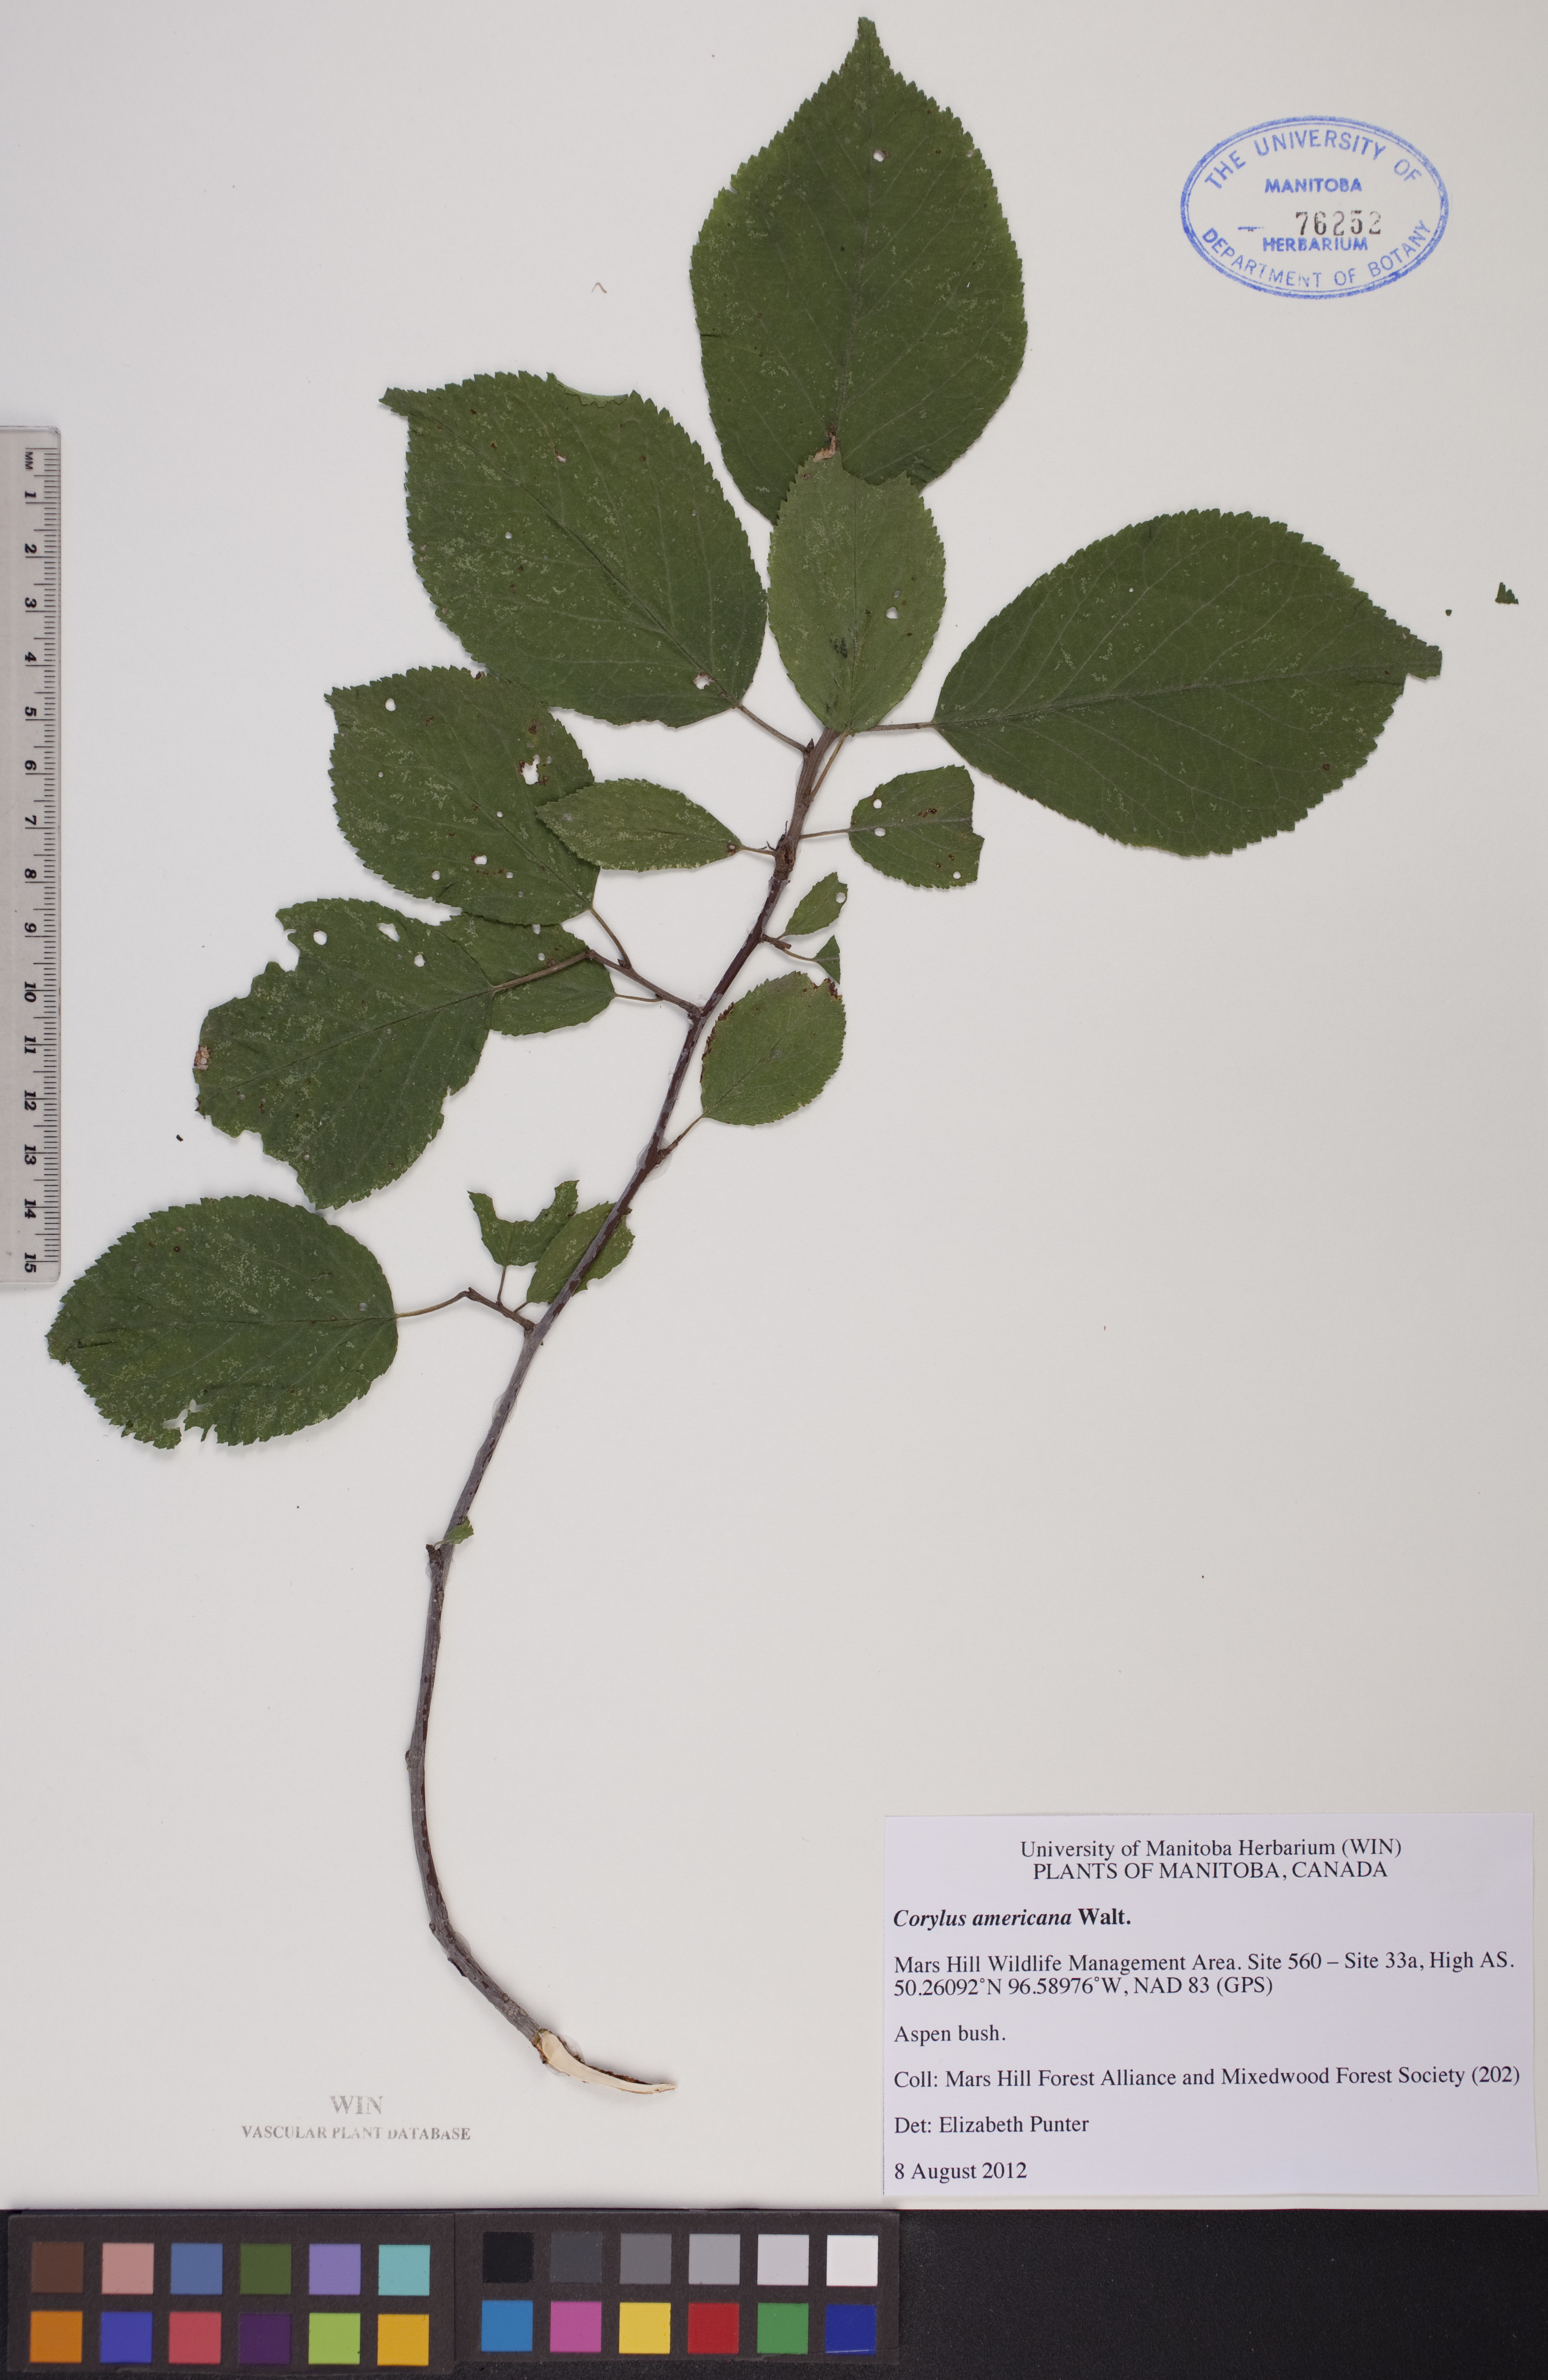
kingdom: Plantae
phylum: Tracheophyta
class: Magnoliopsida
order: Fagales
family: Betulaceae
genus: Corylus
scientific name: Corylus americana
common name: American hazel
